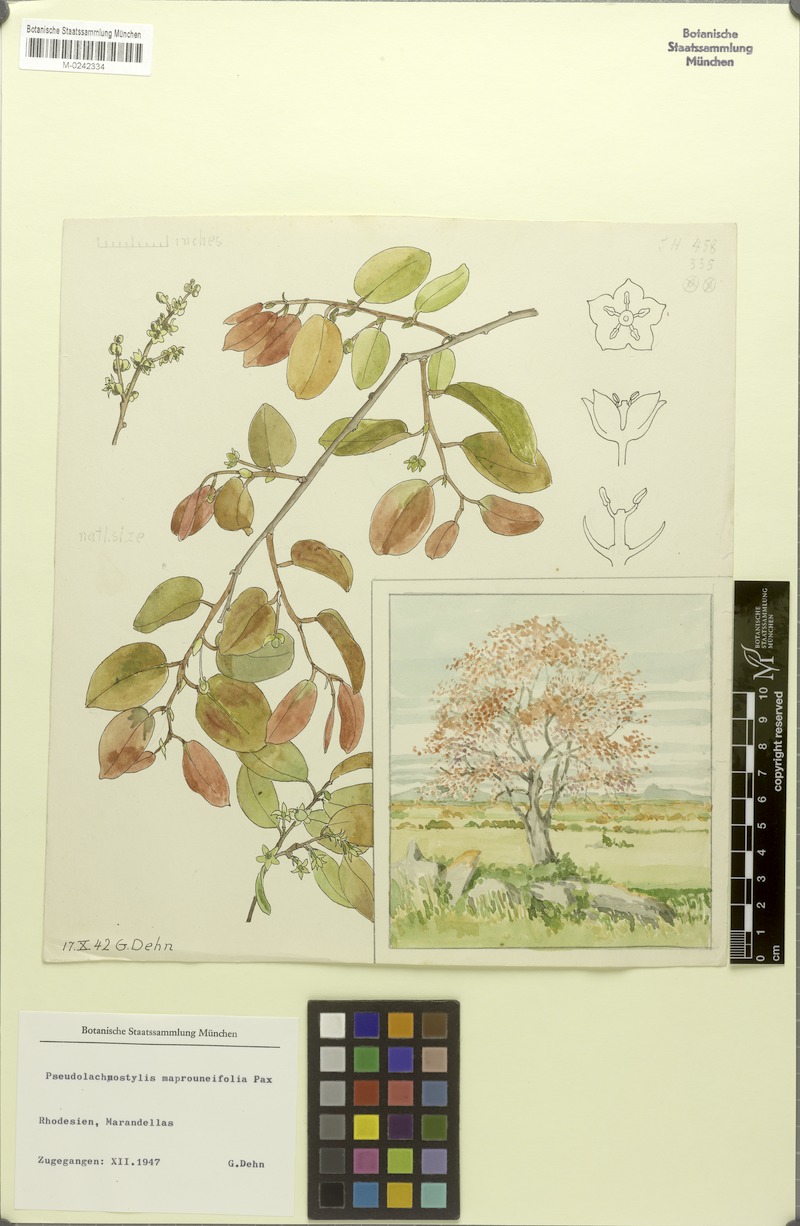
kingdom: Plantae
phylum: Tracheophyta
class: Magnoliopsida
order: Malpighiales
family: Phyllanthaceae
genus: Pseudolachnostylis
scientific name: Pseudolachnostylis maprouneifolia
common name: Kudu berry
